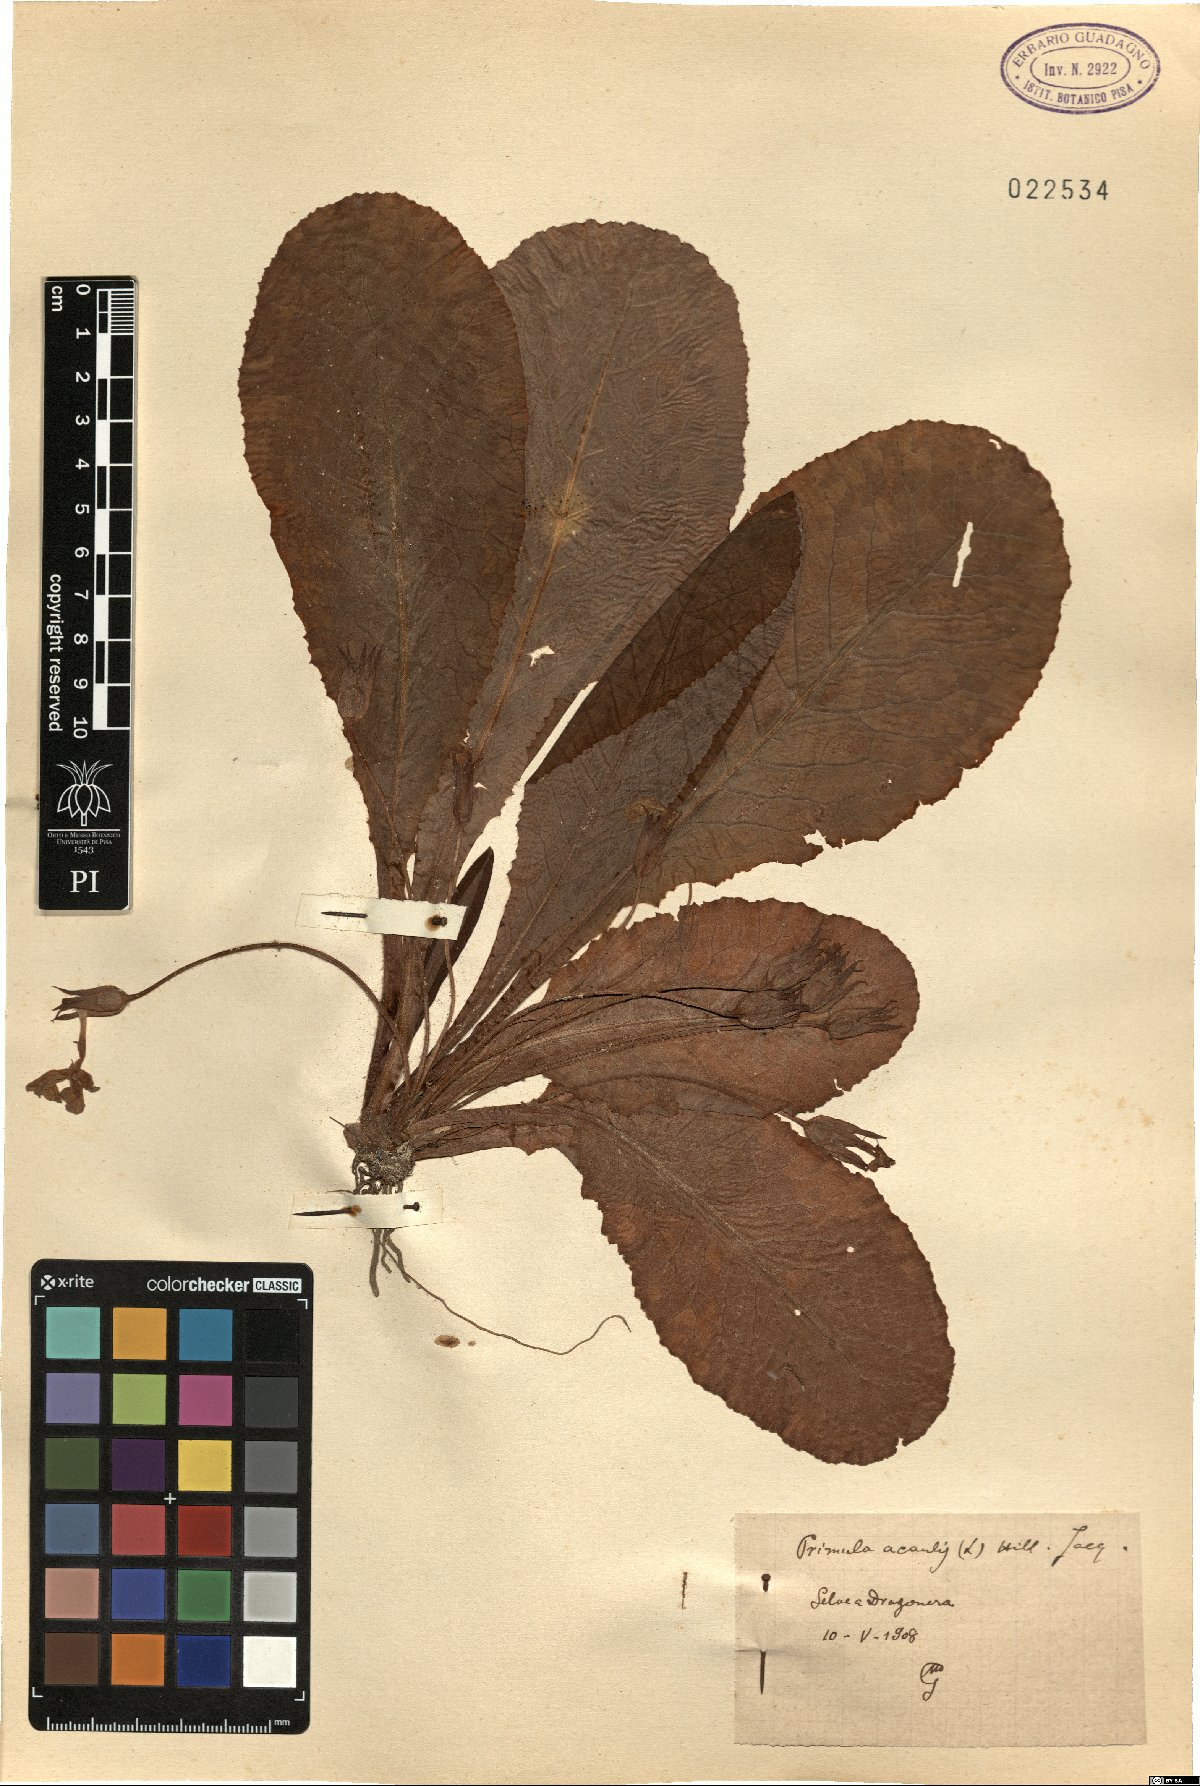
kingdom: Plantae
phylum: Tracheophyta
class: Magnoliopsida
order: Ericales
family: Primulaceae
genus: Primula
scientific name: Primula vulgaris
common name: Primrose
